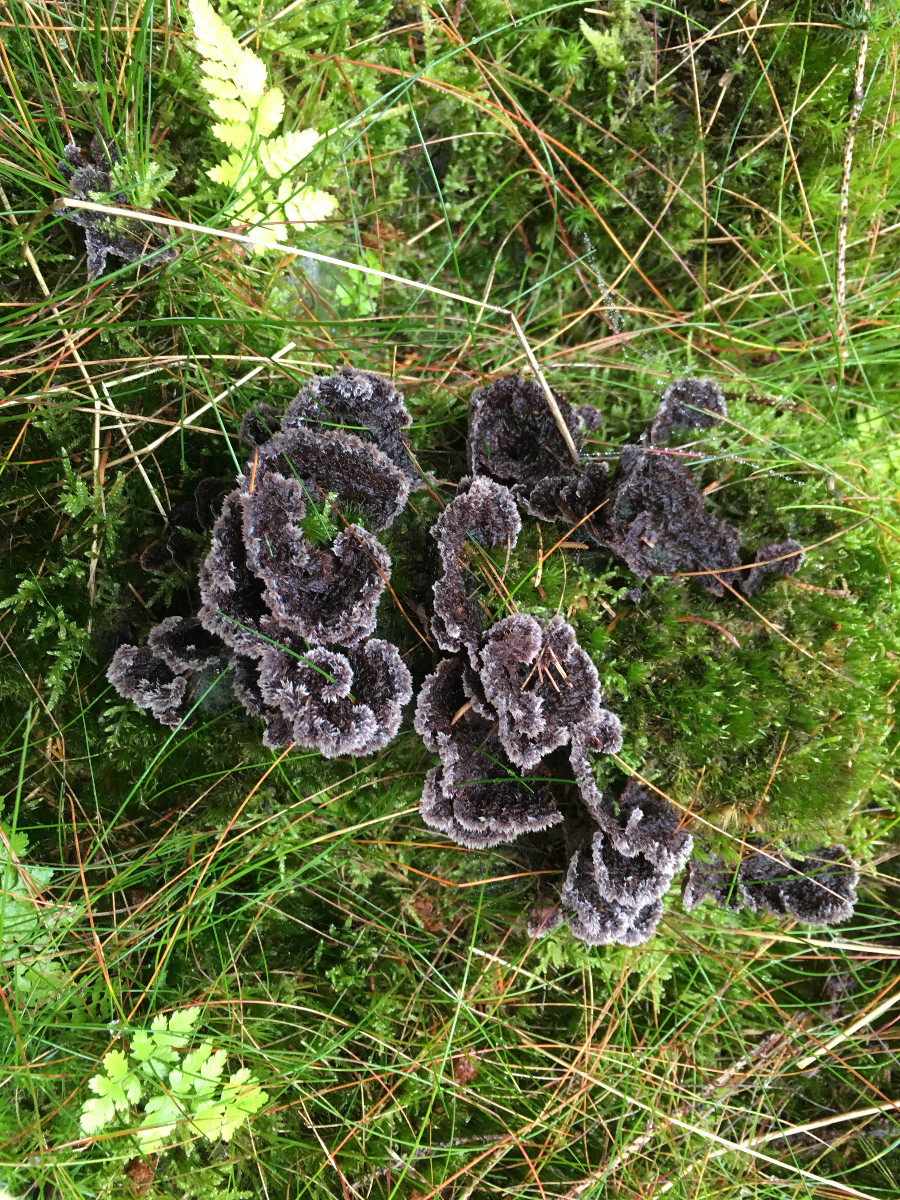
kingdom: Fungi
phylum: Basidiomycota
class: Agaricomycetes
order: Thelephorales
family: Thelephoraceae
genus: Thelephora
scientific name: Thelephora terrestris
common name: fliget frynsesvamp
